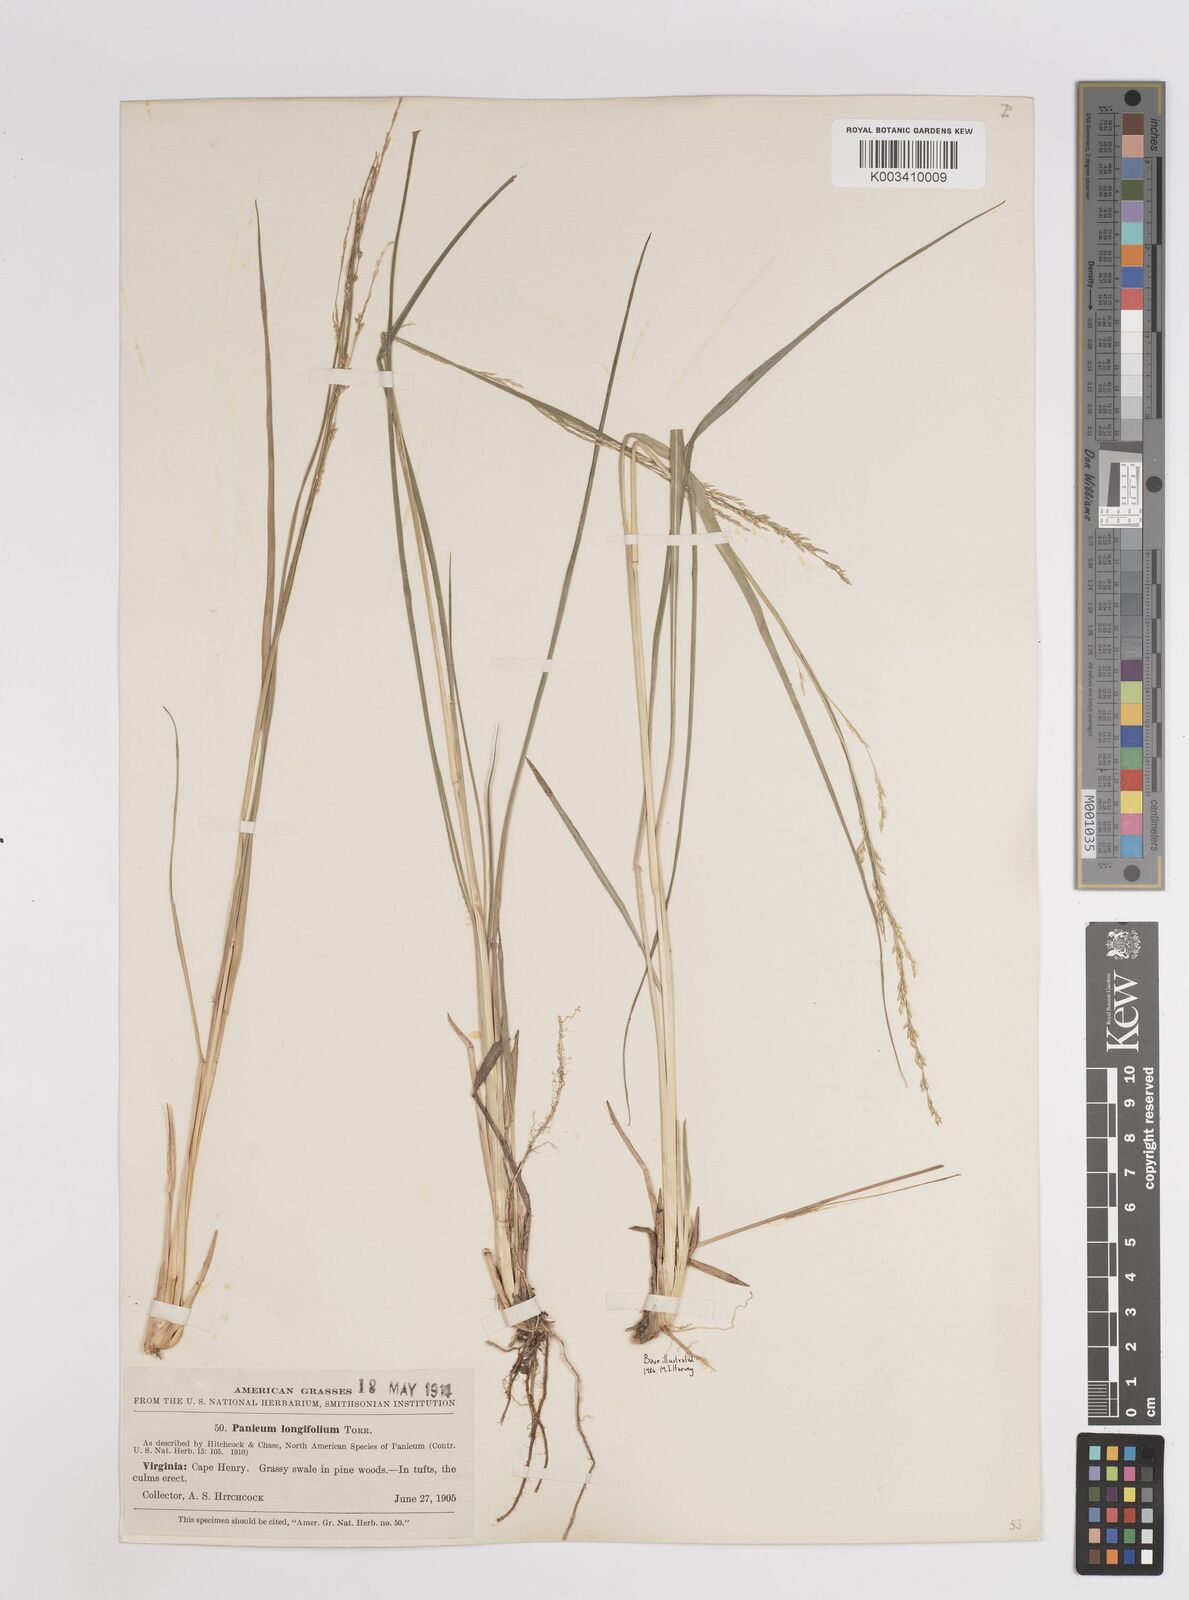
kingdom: Plantae
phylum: Tracheophyta
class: Liliopsida
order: Poales
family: Poaceae
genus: Coleataenia
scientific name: Coleataenia longifolia
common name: Long-leaved panicgrass
